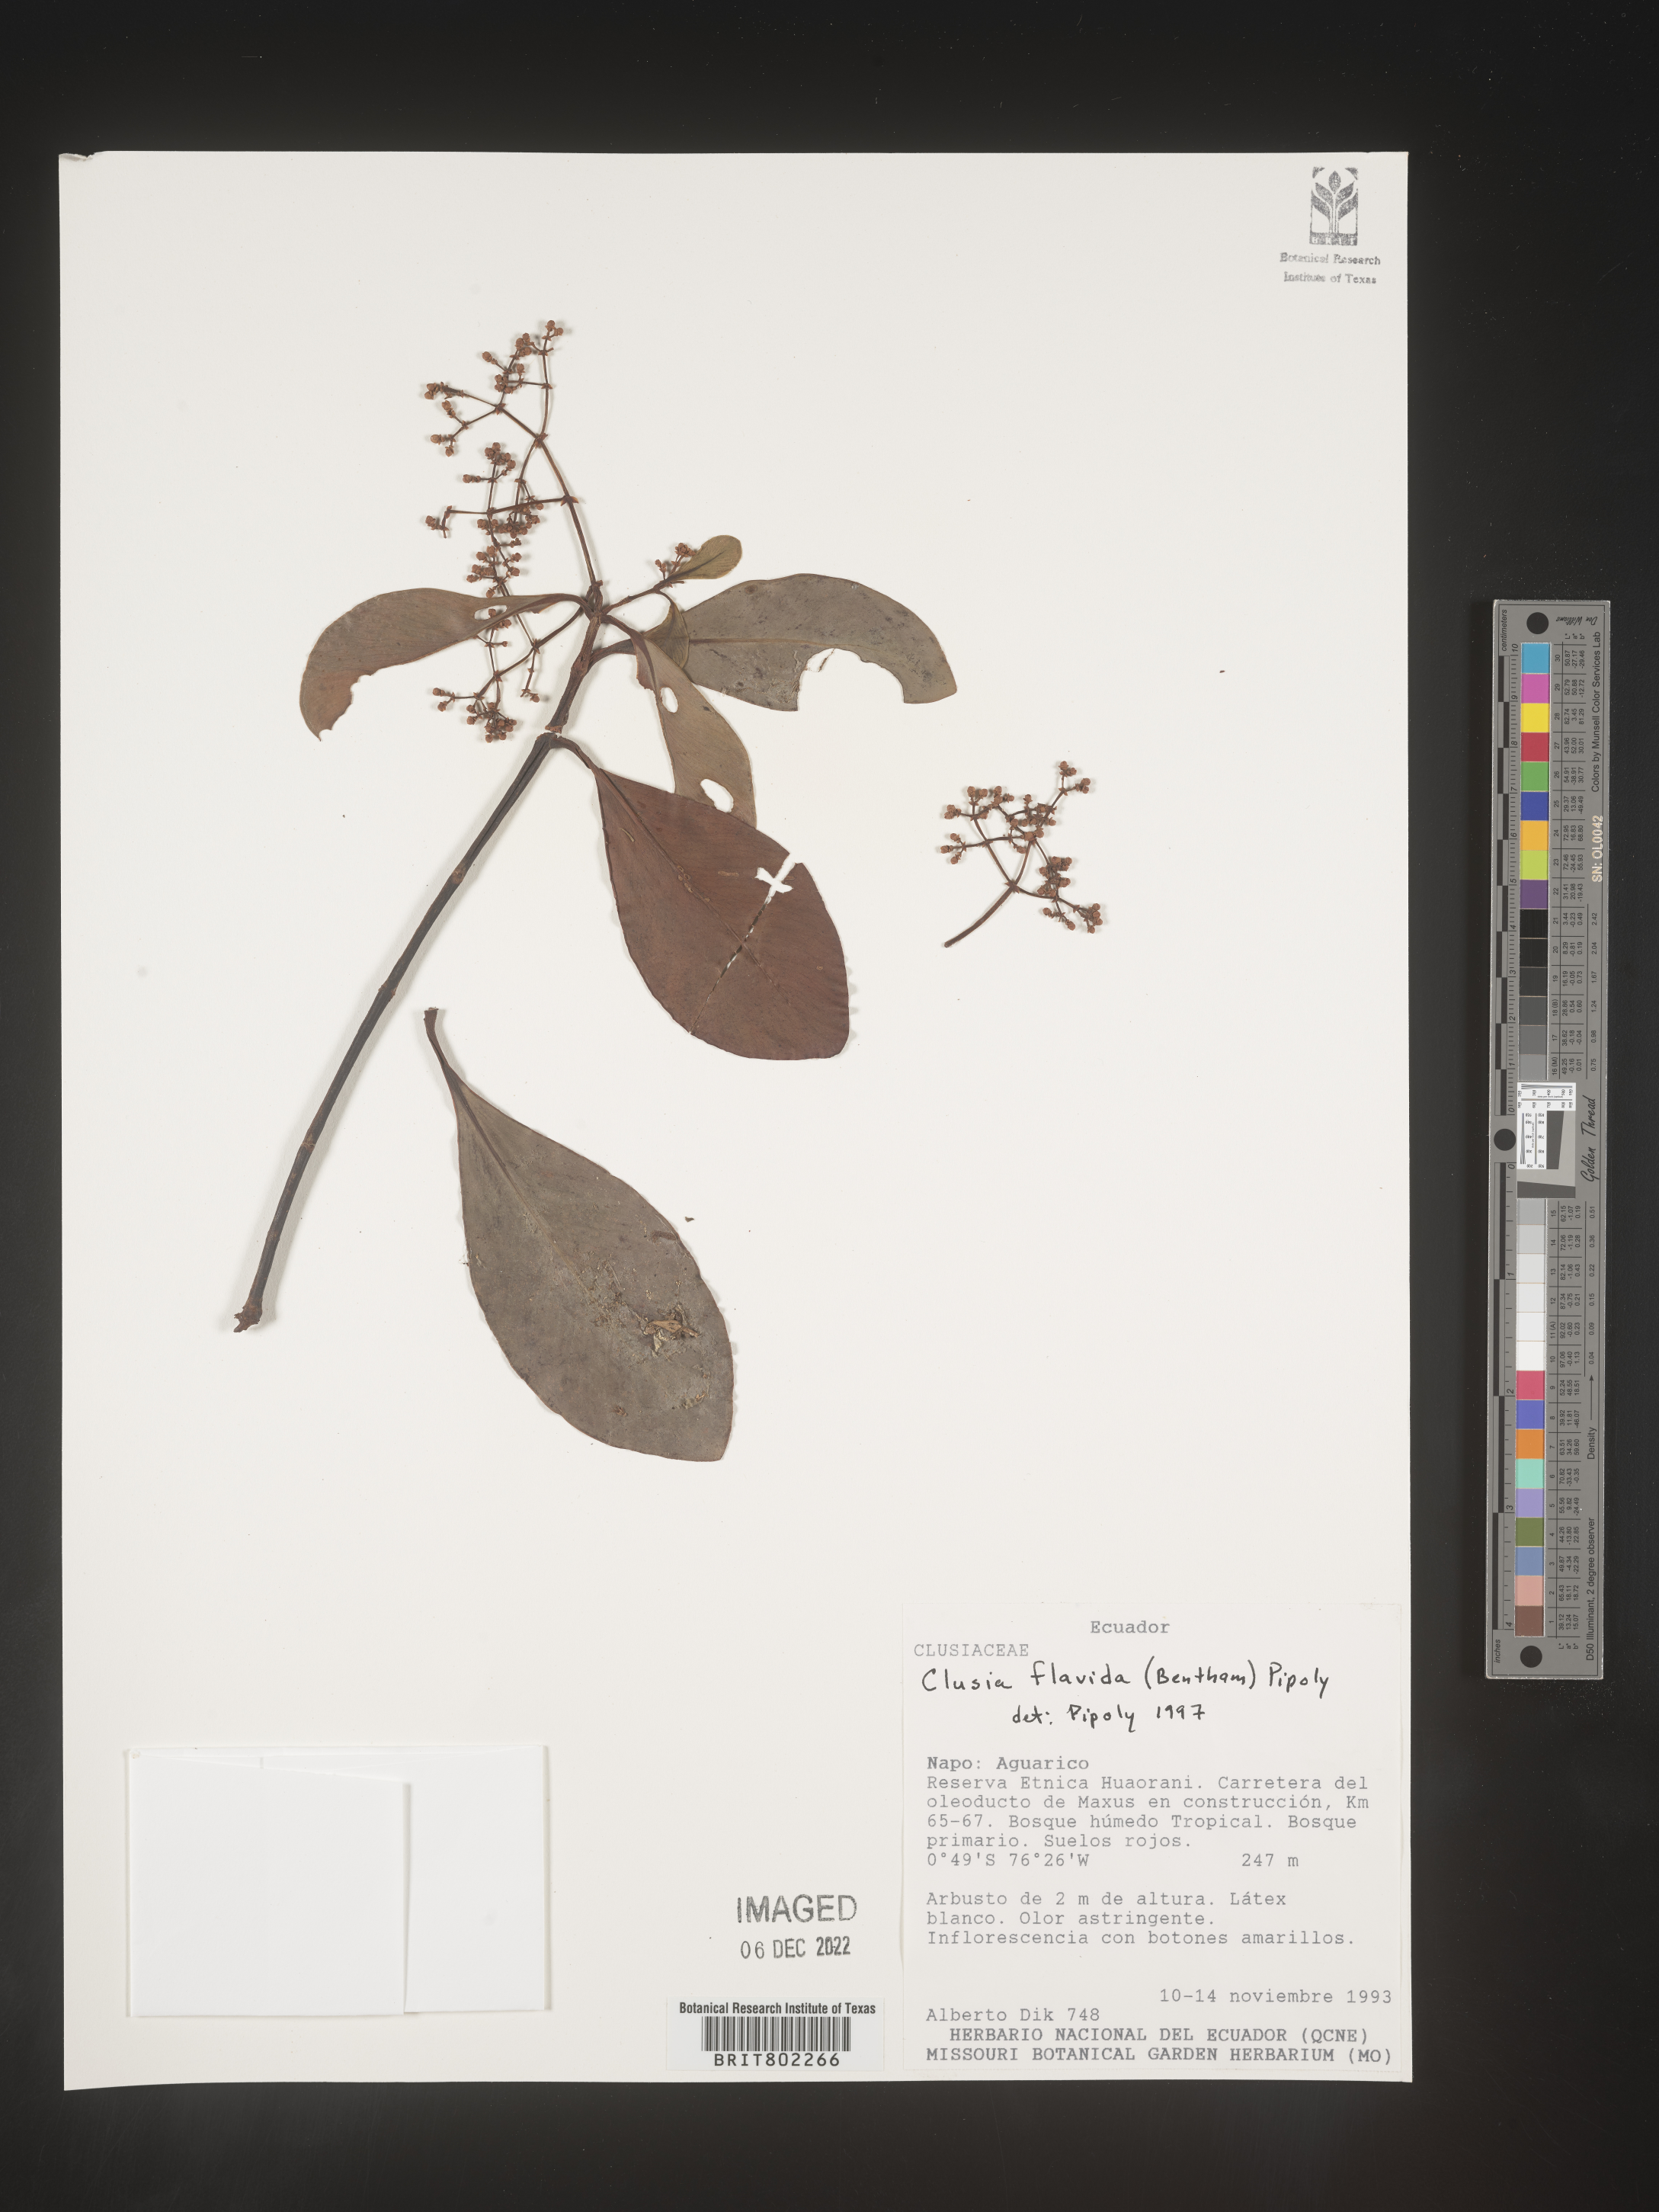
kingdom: Plantae
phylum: Tracheophyta
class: Magnoliopsida
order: Malpighiales
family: Clusiaceae
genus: Clusia
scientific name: Clusia flavida
